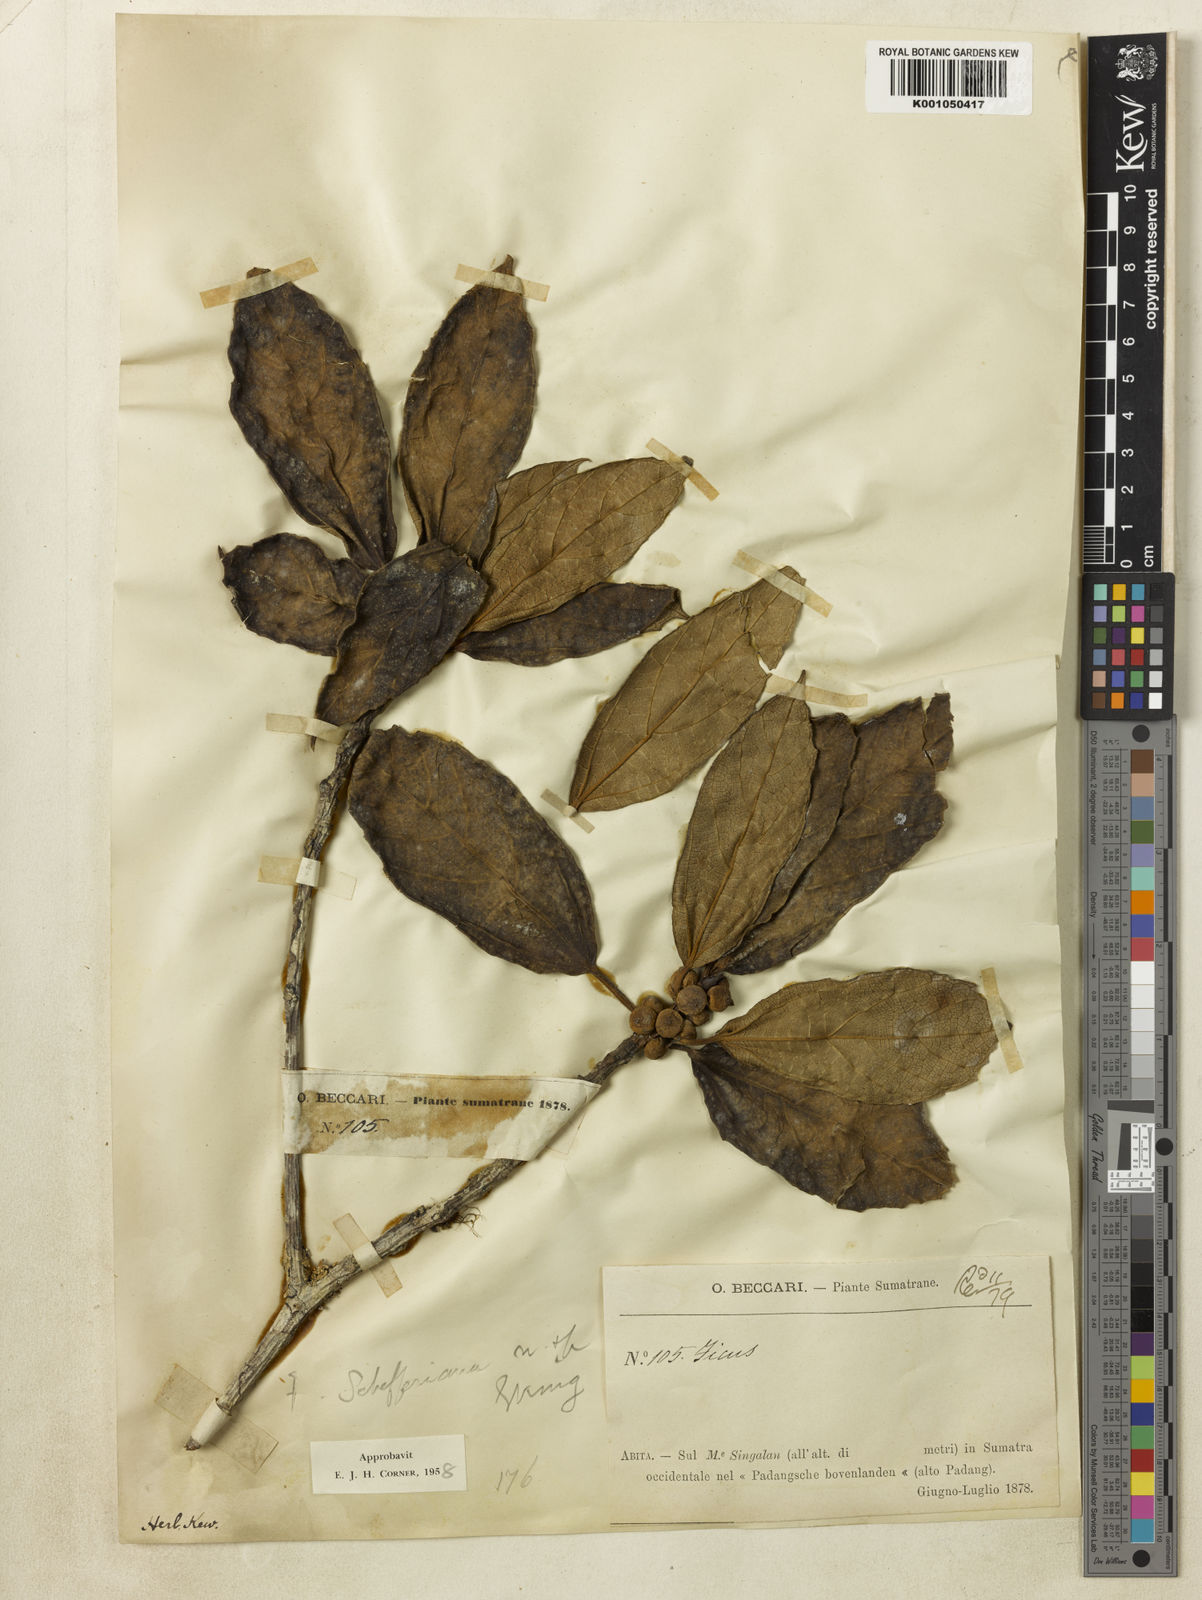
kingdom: Plantae
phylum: Tracheophyta
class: Magnoliopsida
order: Rosales
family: Moraceae
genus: Ficus
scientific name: Ficus schefferiana
